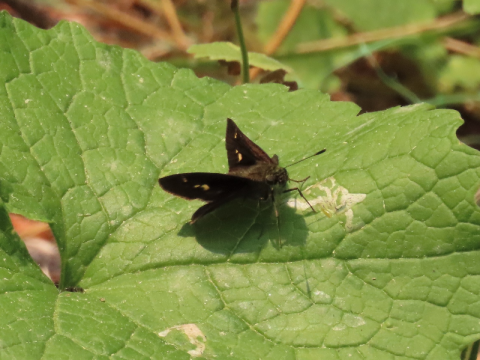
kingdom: Animalia
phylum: Arthropoda
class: Insecta
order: Lepidoptera
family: Hesperiidae
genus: Vernia
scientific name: Vernia verna
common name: Little Glassywing
